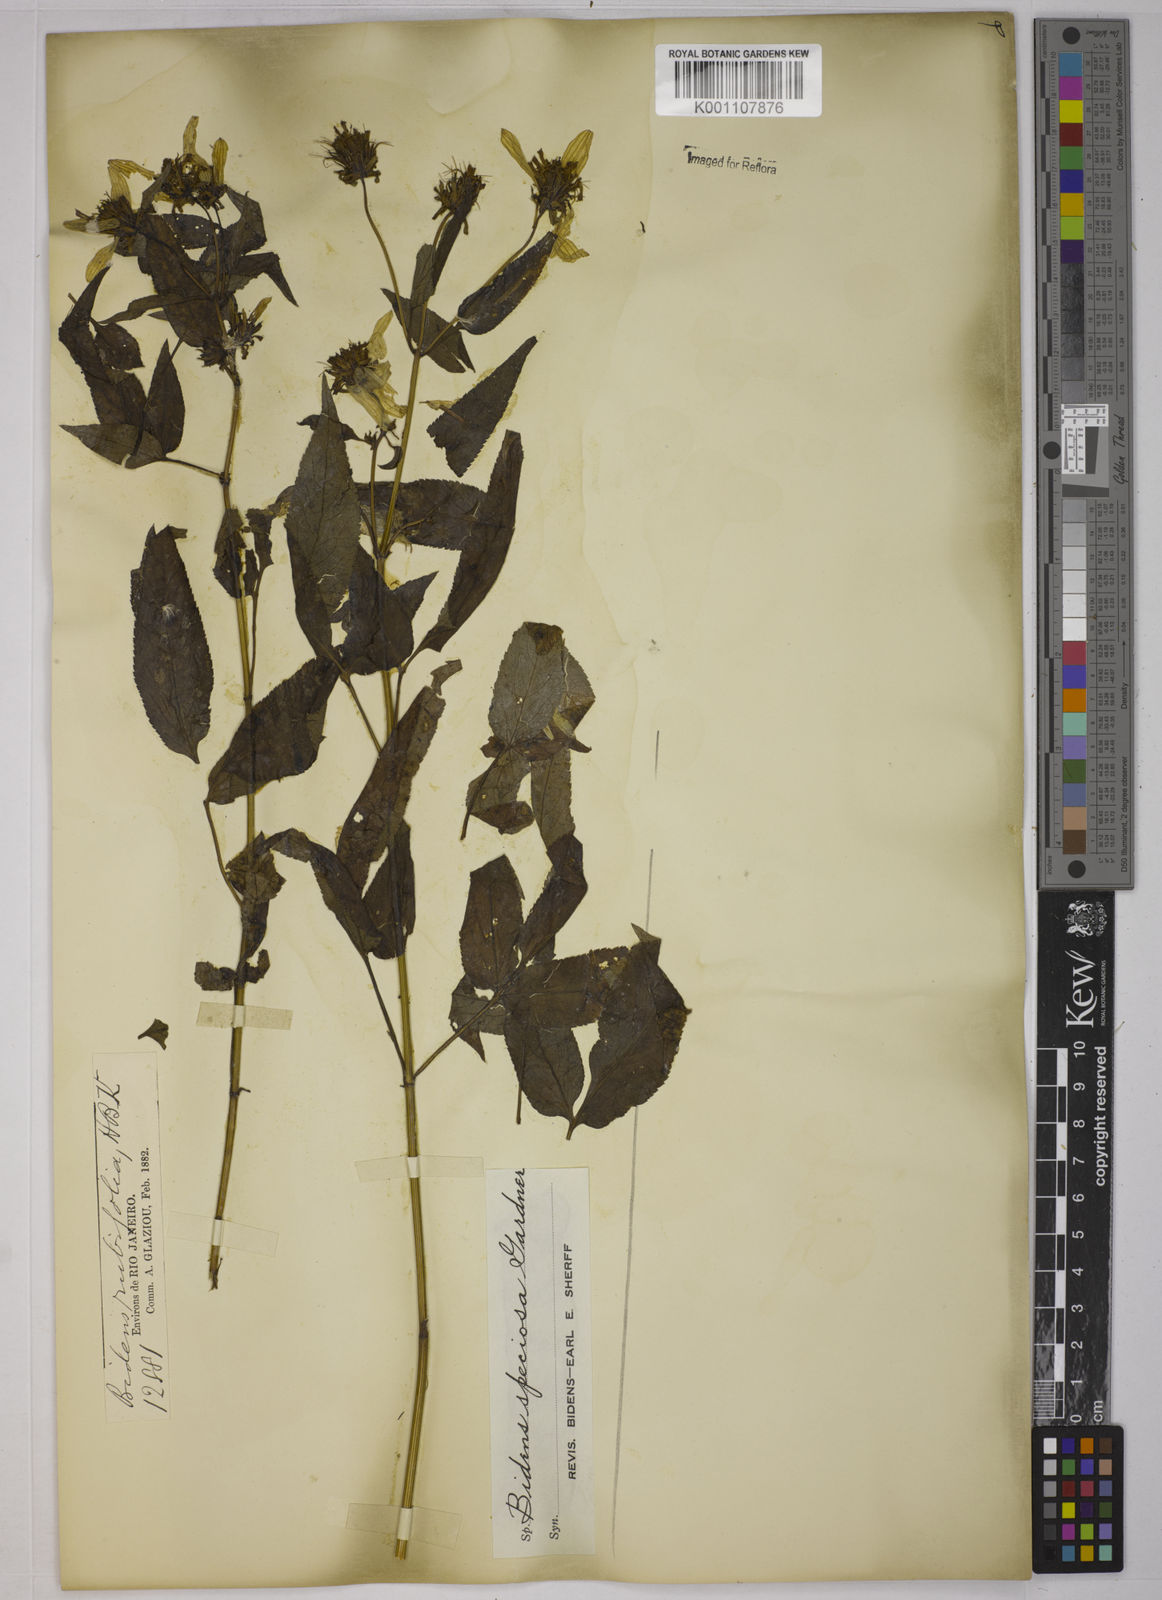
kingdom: Plantae
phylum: Tracheophyta
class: Magnoliopsida
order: Asterales
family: Asteraceae
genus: Bidens
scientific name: Bidens segetum
